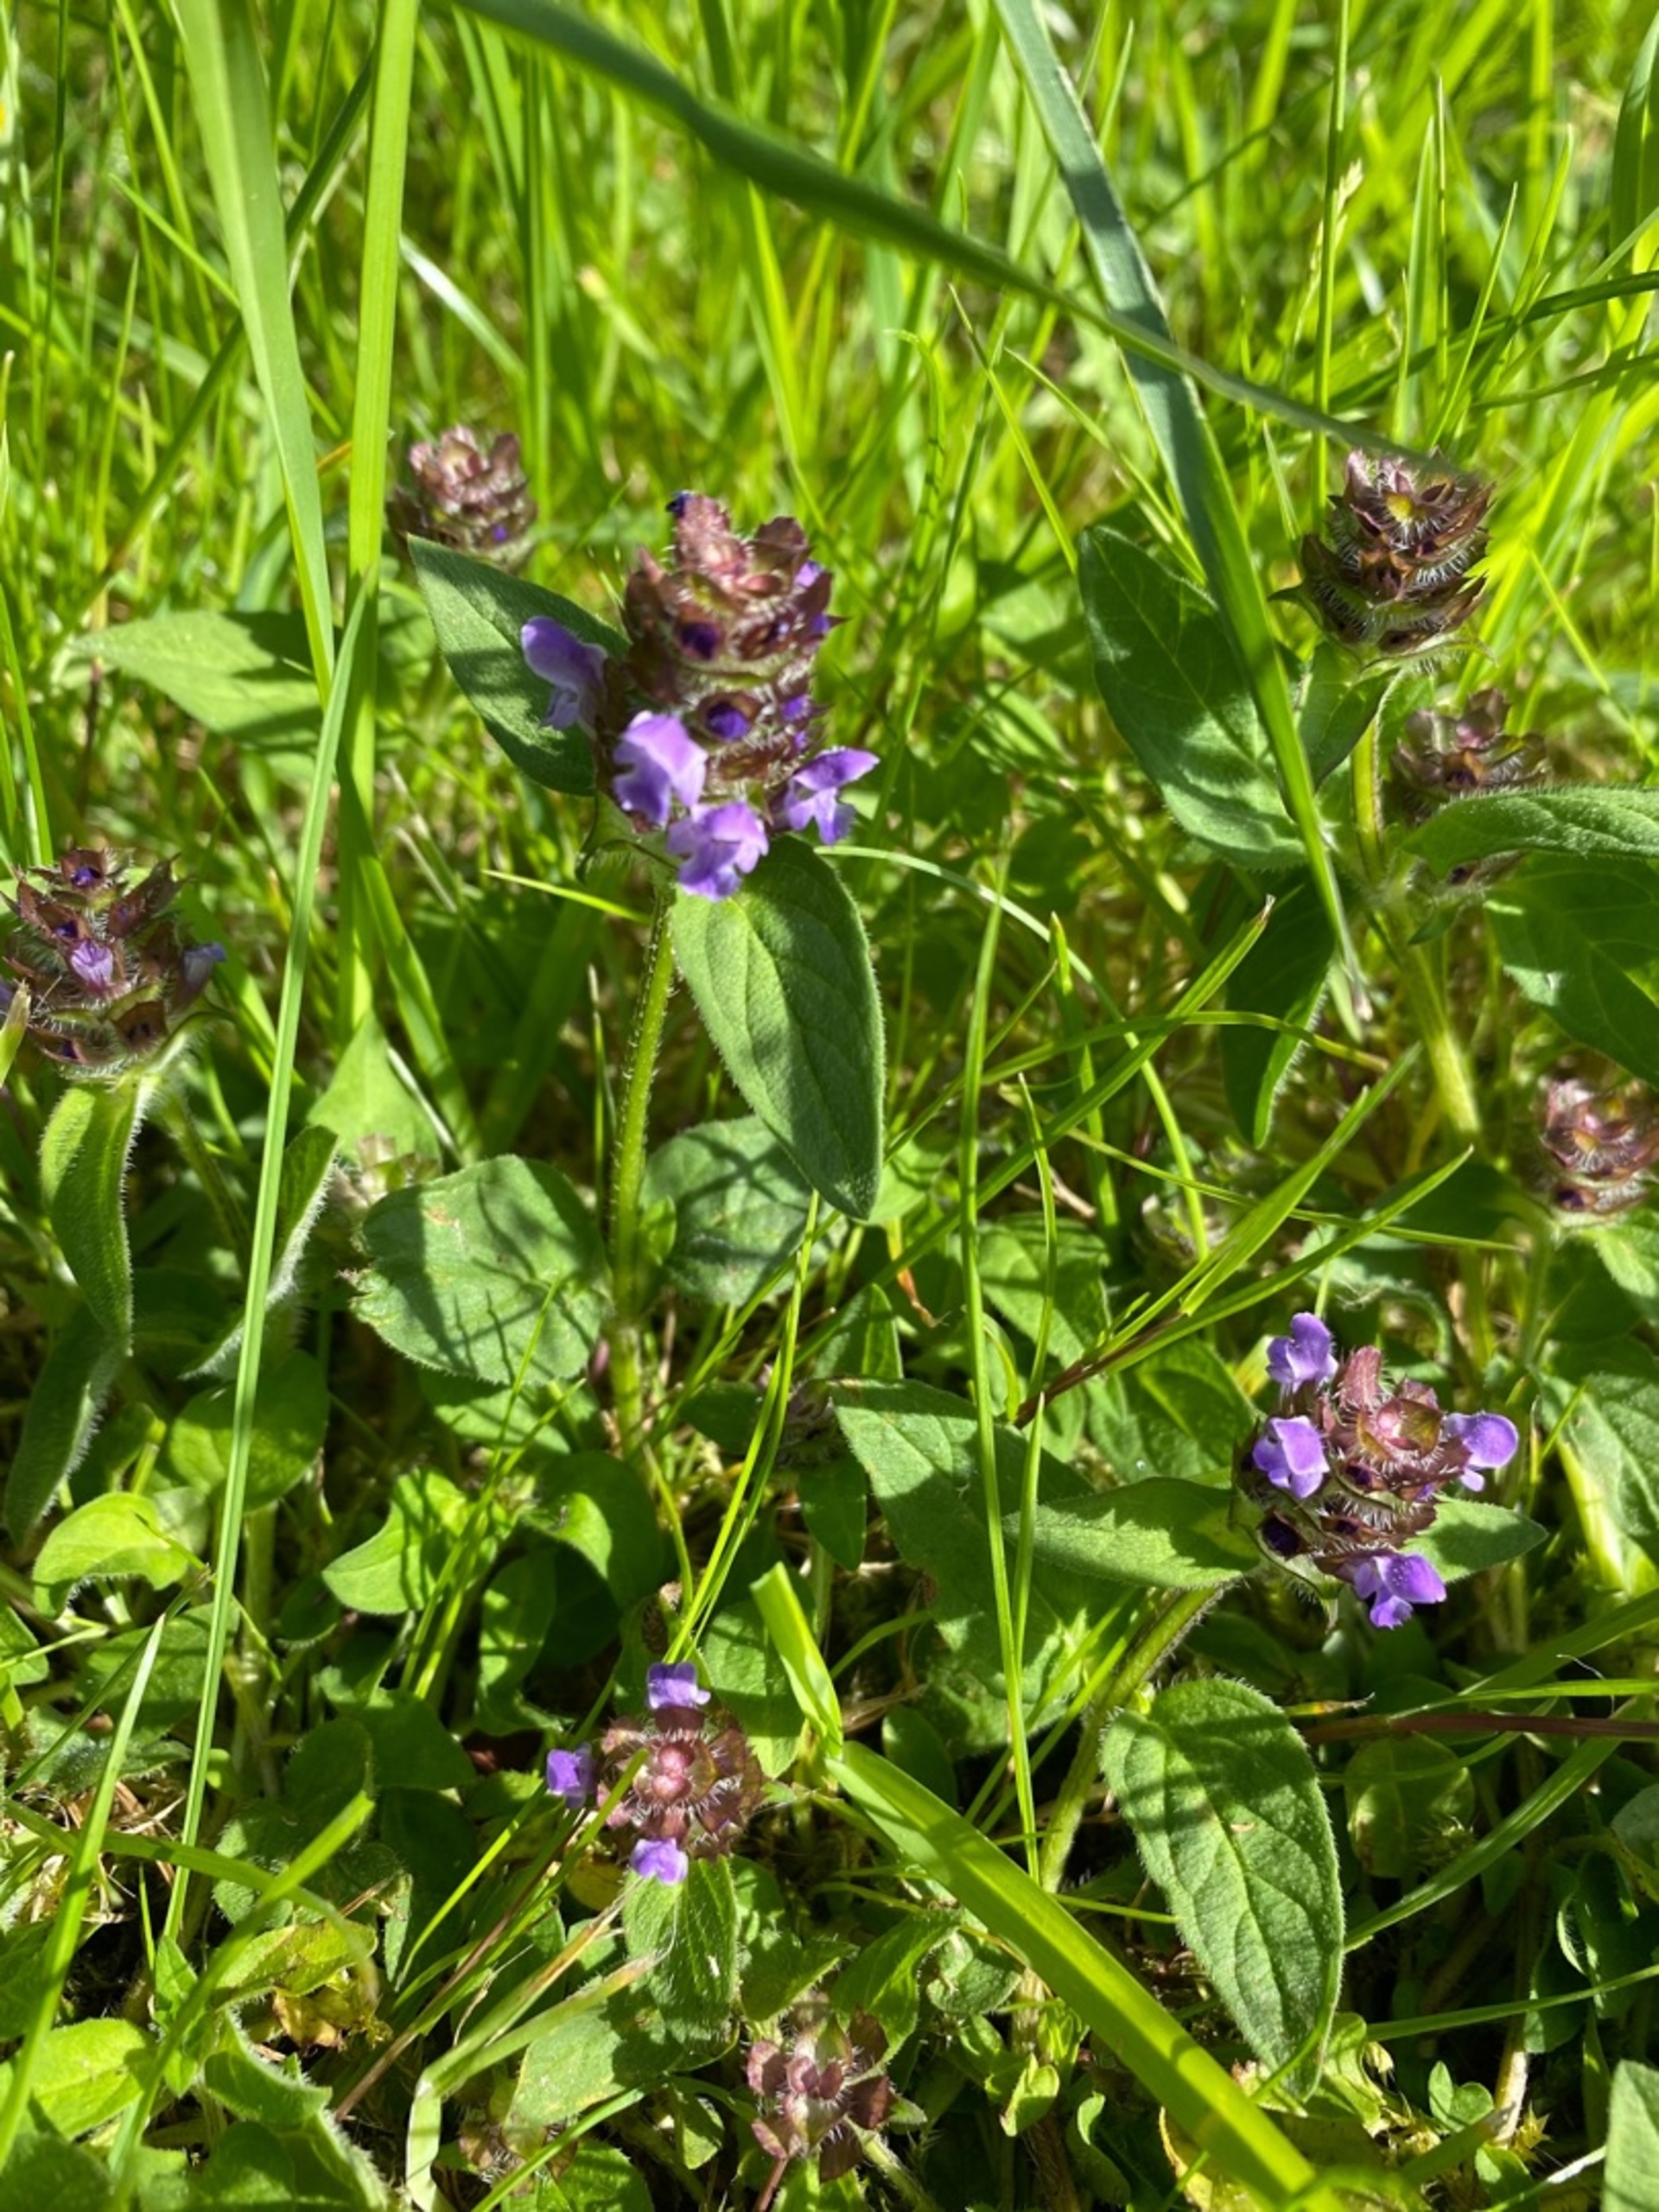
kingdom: Plantae
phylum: Tracheophyta
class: Magnoliopsida
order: Lamiales
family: Lamiaceae
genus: Prunella
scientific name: Prunella vulgaris
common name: Almindelig brunelle
